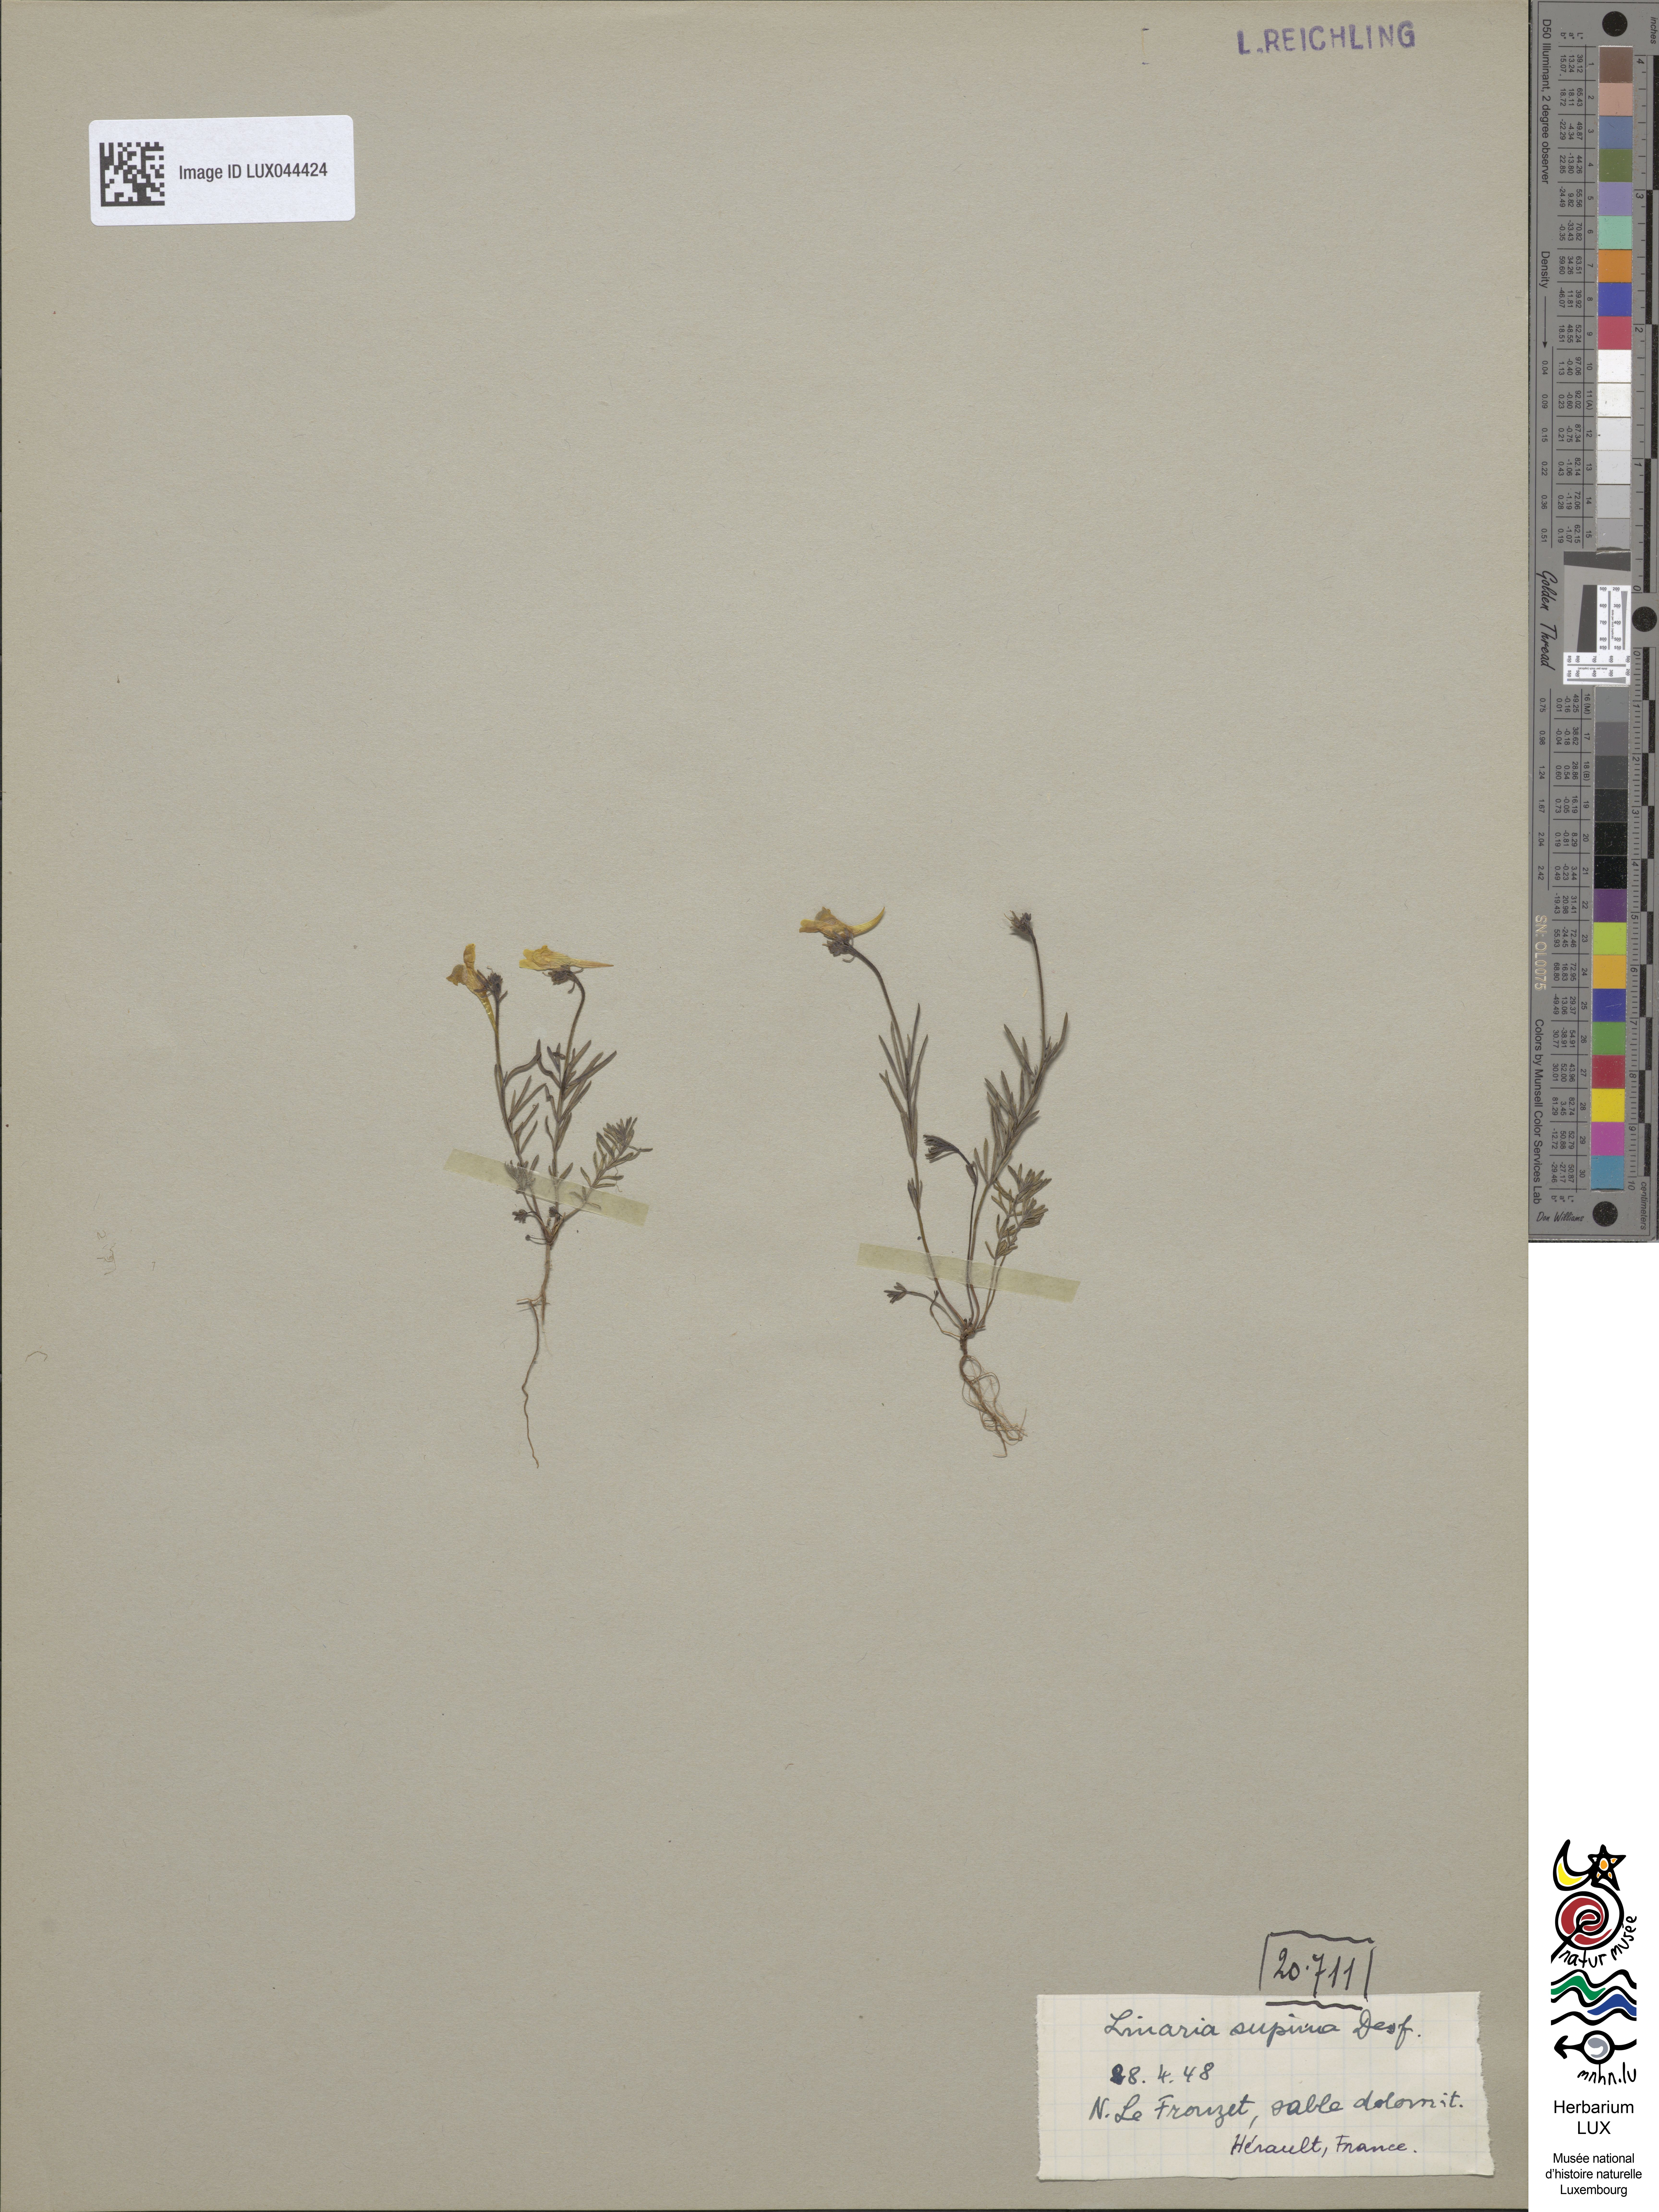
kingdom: Plantae
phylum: Tracheophyta
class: Magnoliopsida
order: Lamiales
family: Plantaginaceae
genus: Linaria
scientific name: Linaria supina
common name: Prostrate toadflax
